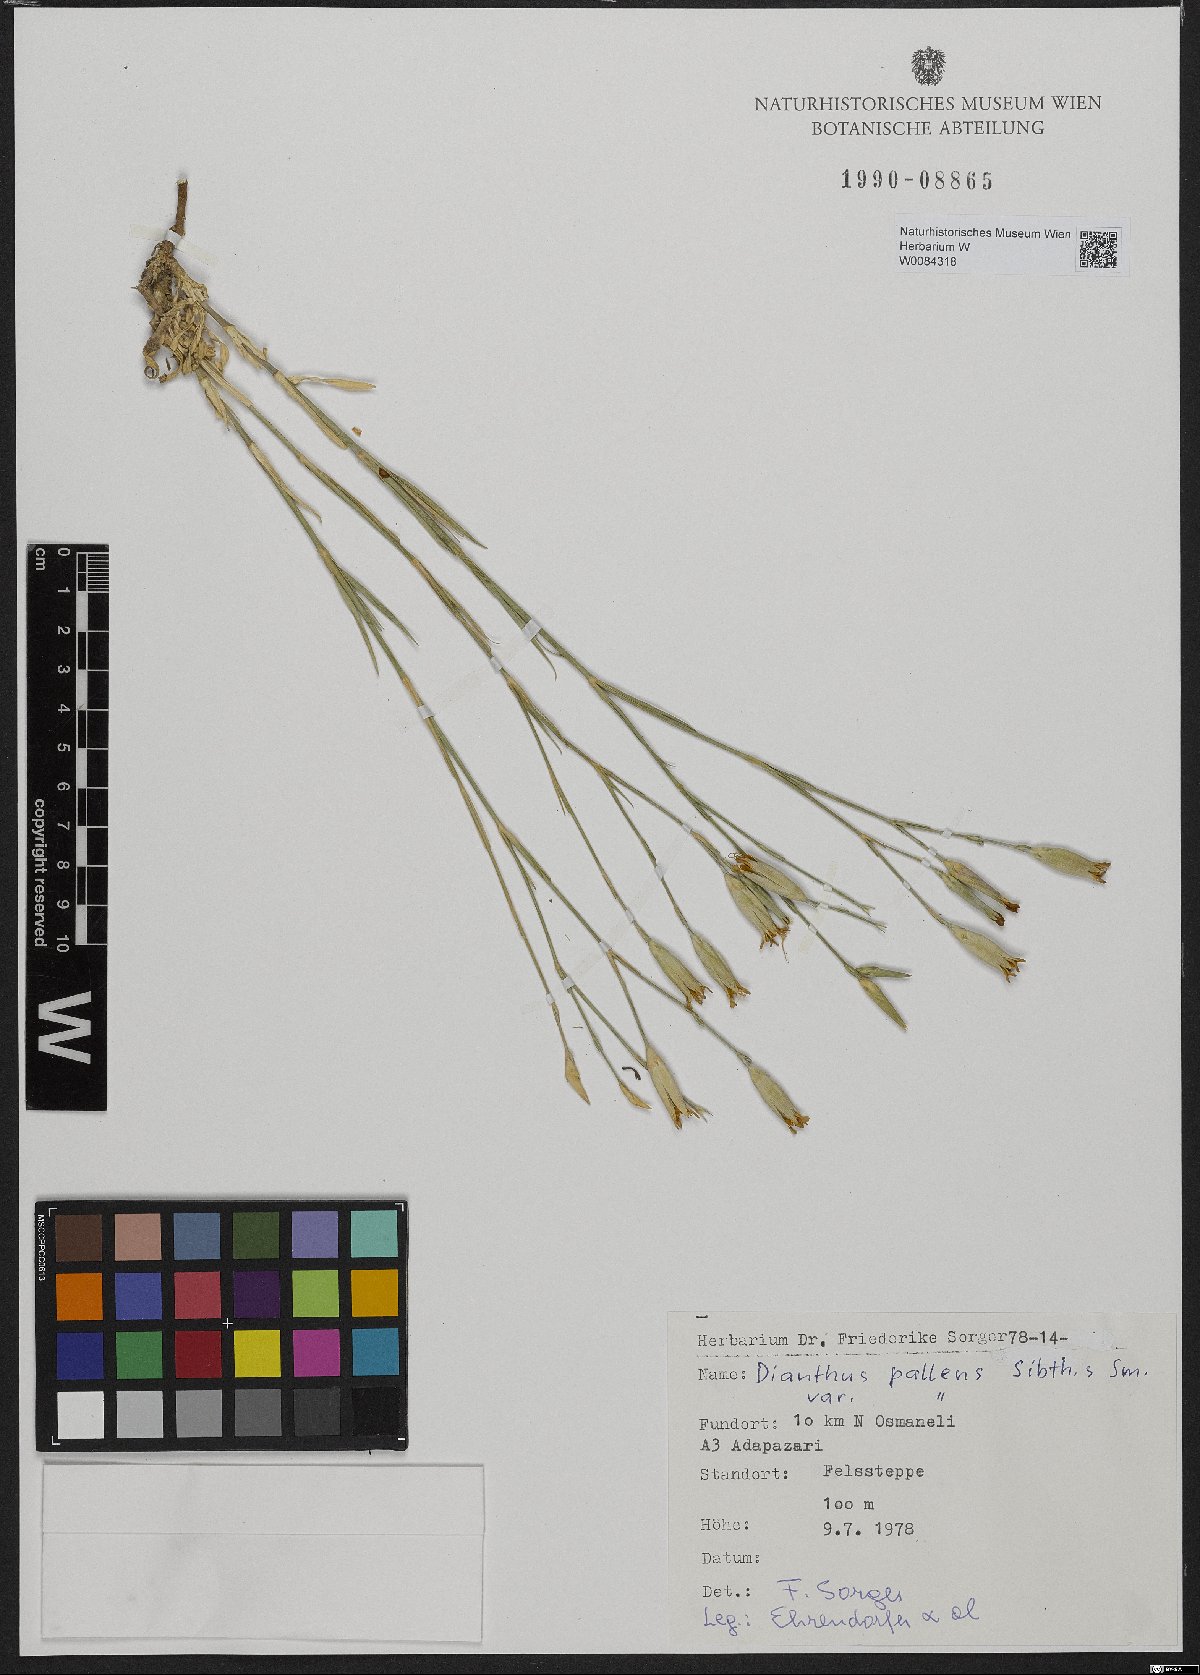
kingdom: Plantae
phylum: Tracheophyta
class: Magnoliopsida
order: Caryophyllales
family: Caryophyllaceae
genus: Dianthus
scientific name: Dianthus monadelphus
